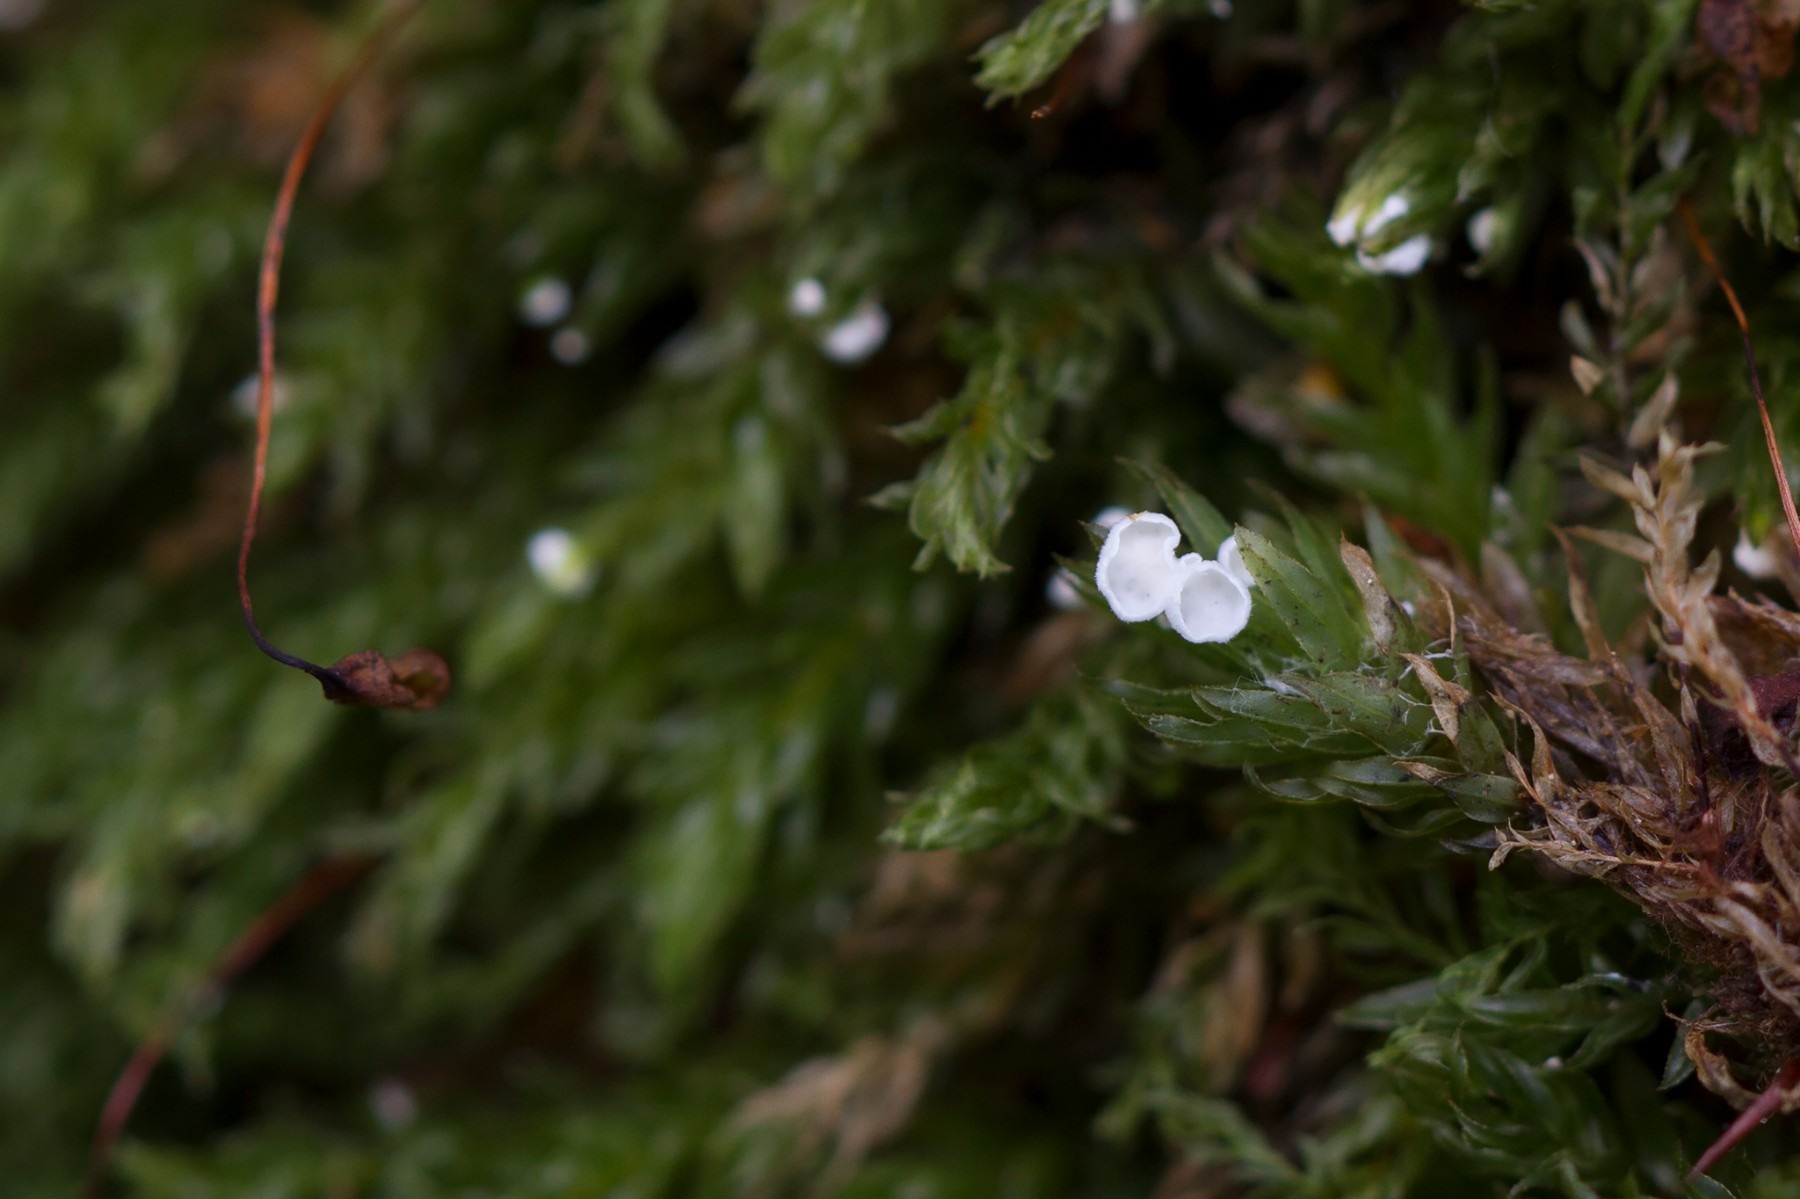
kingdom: Fungi
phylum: Basidiomycota
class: Agaricomycetes
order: Agaricales
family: Tricholomataceae
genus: Rimbachia
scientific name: Rimbachia arachnoidea
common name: Almindelig mosskål
